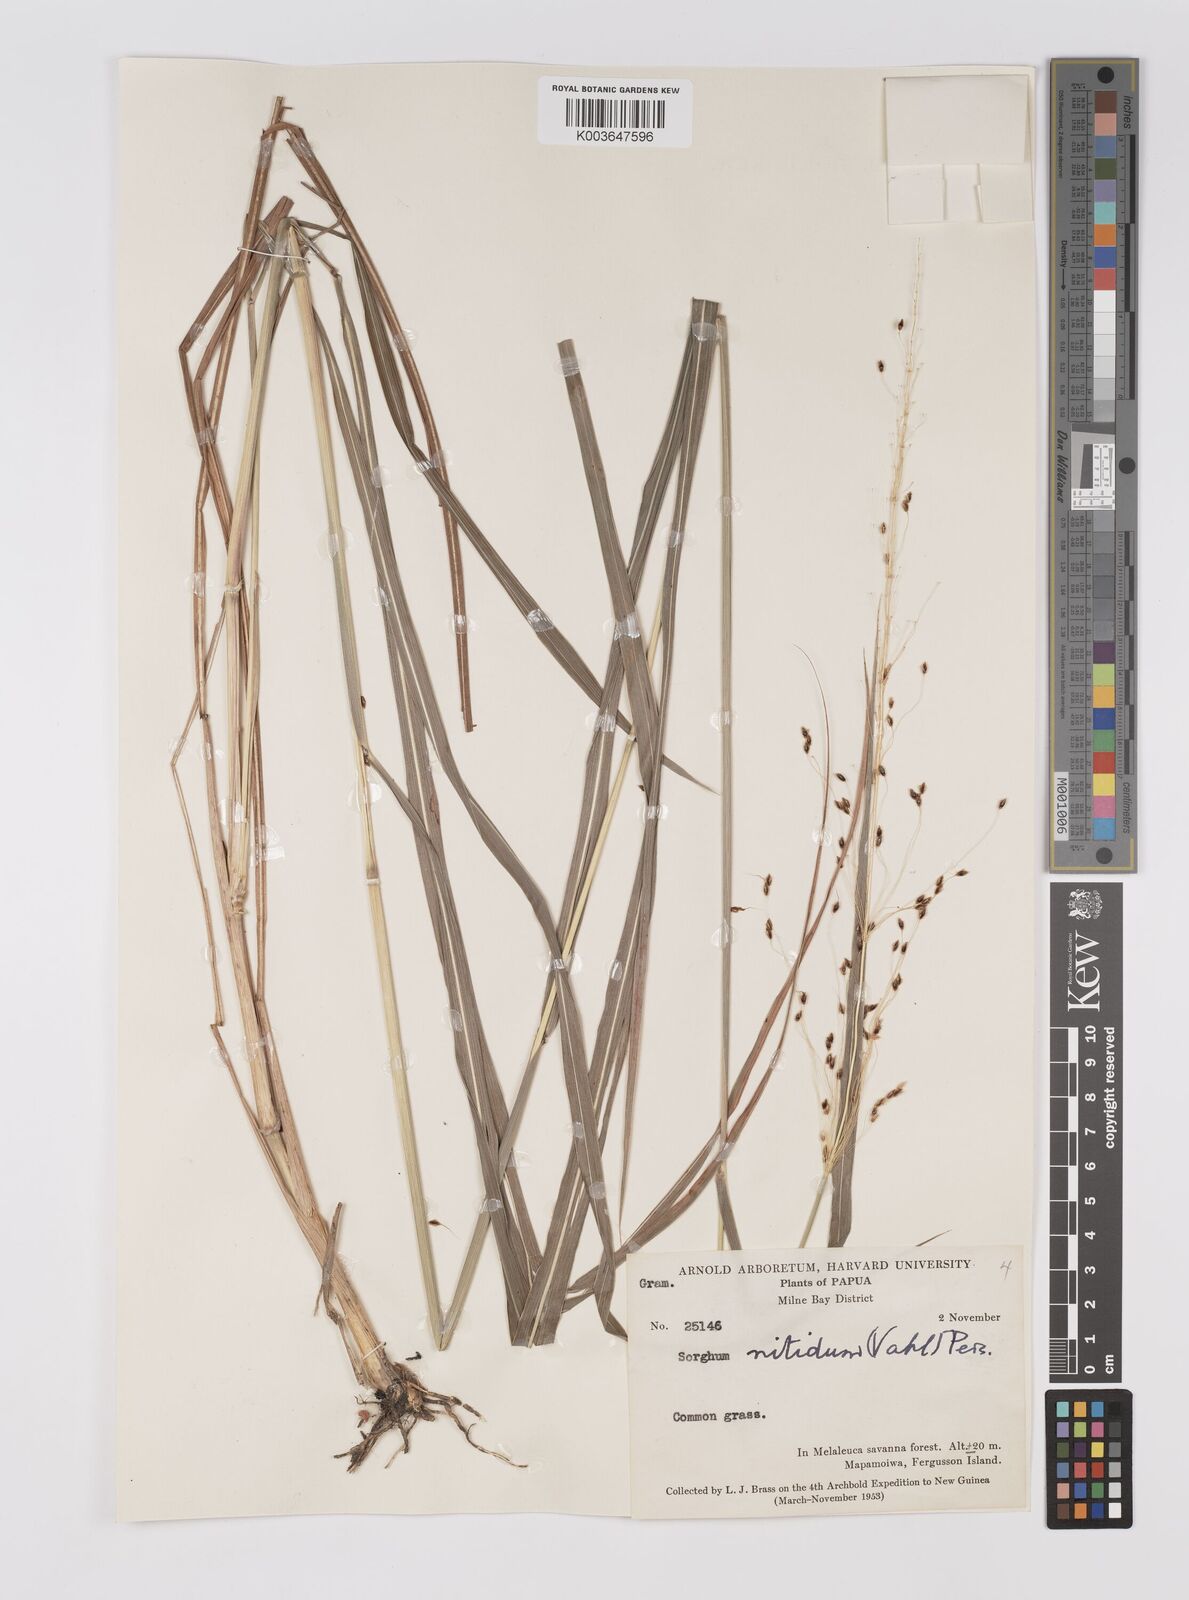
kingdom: Plantae
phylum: Tracheophyta
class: Liliopsida
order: Poales
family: Poaceae
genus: Sorghum
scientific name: Sorghum nitidum
